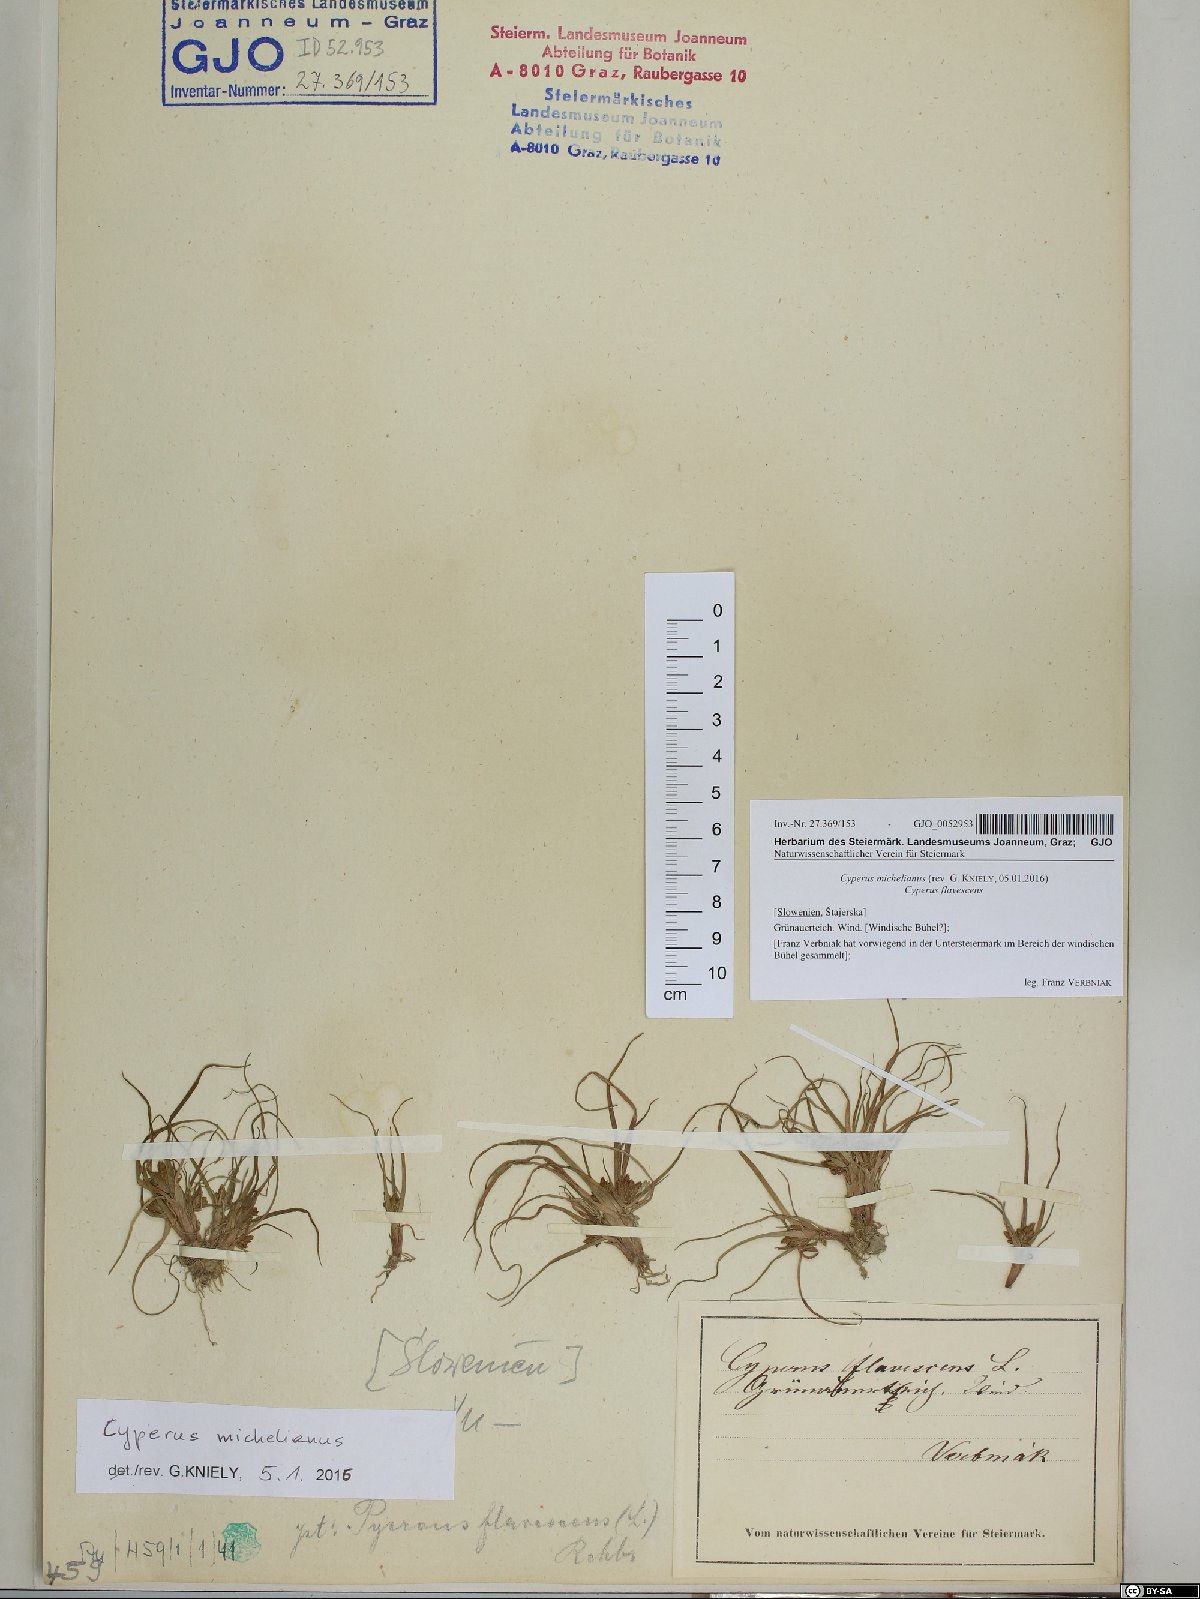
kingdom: Plantae
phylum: Tracheophyta
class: Liliopsida
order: Poales
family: Cyperaceae
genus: Cyperus
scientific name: Cyperus michelianus
